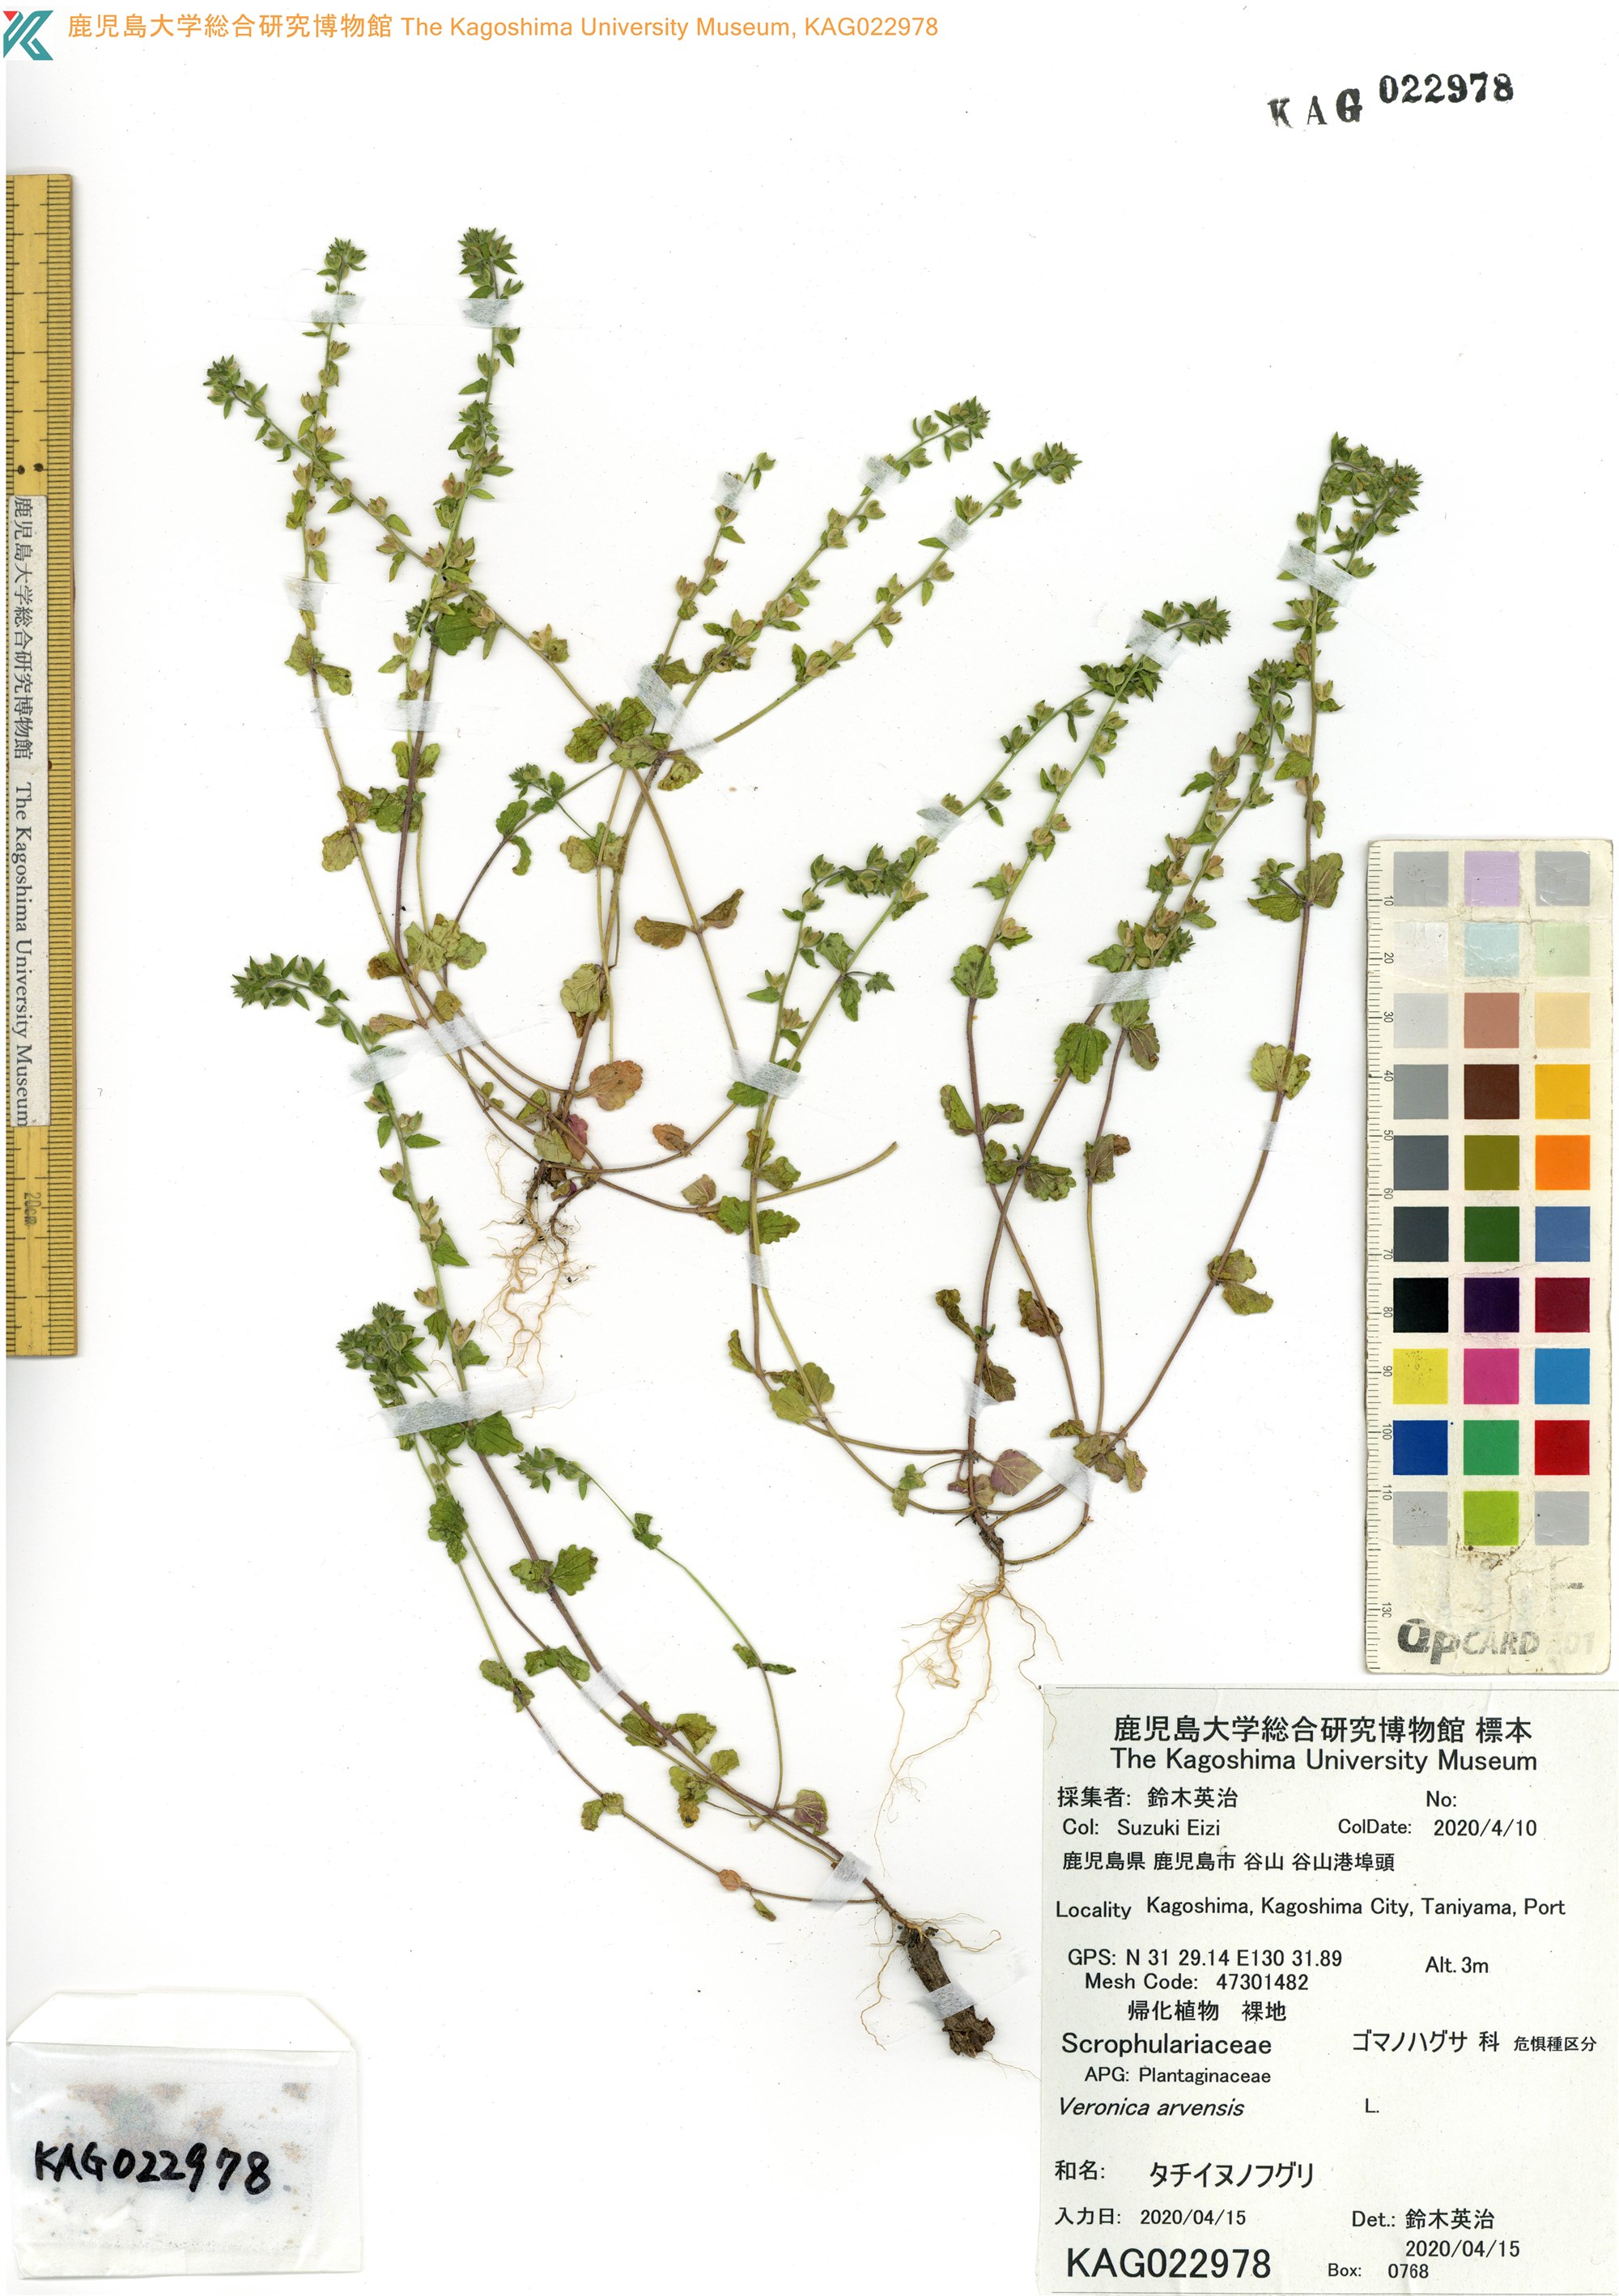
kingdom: Plantae
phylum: Tracheophyta
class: Magnoliopsida
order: Lamiales
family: Plantaginaceae
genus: Veronica
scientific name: Veronica arvensis
